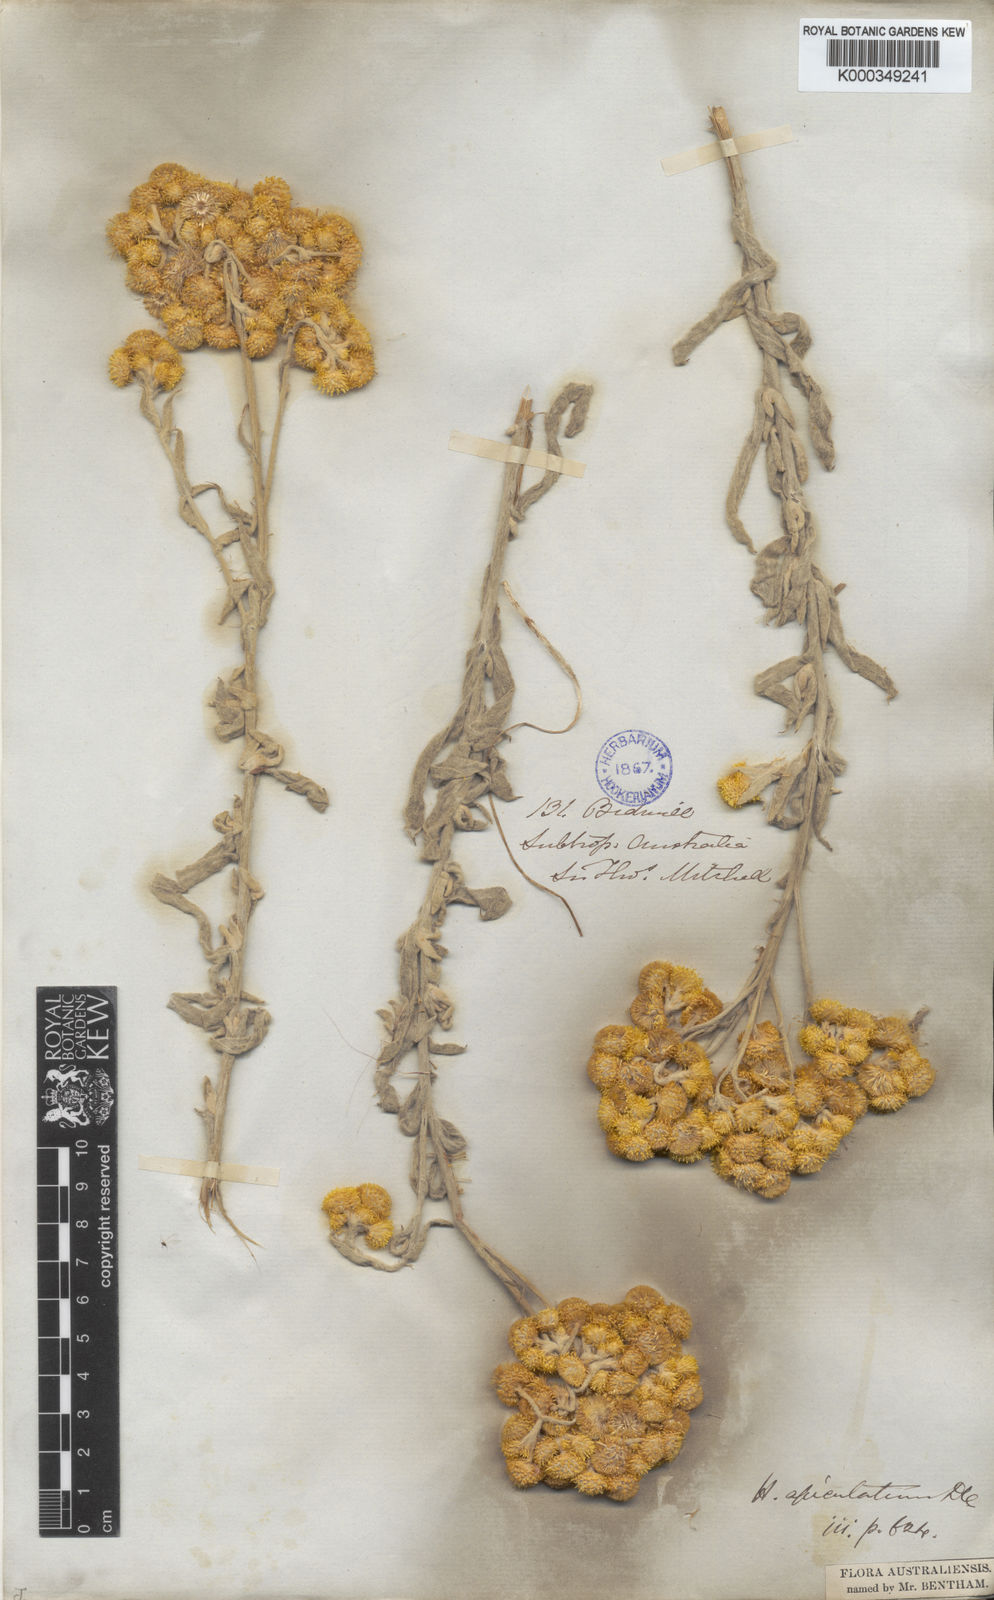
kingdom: Plantae
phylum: Tracheophyta
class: Magnoliopsida
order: Asterales
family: Asteraceae
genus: Chrysocephalum
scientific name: Chrysocephalum apiculatum
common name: Common everlasting
